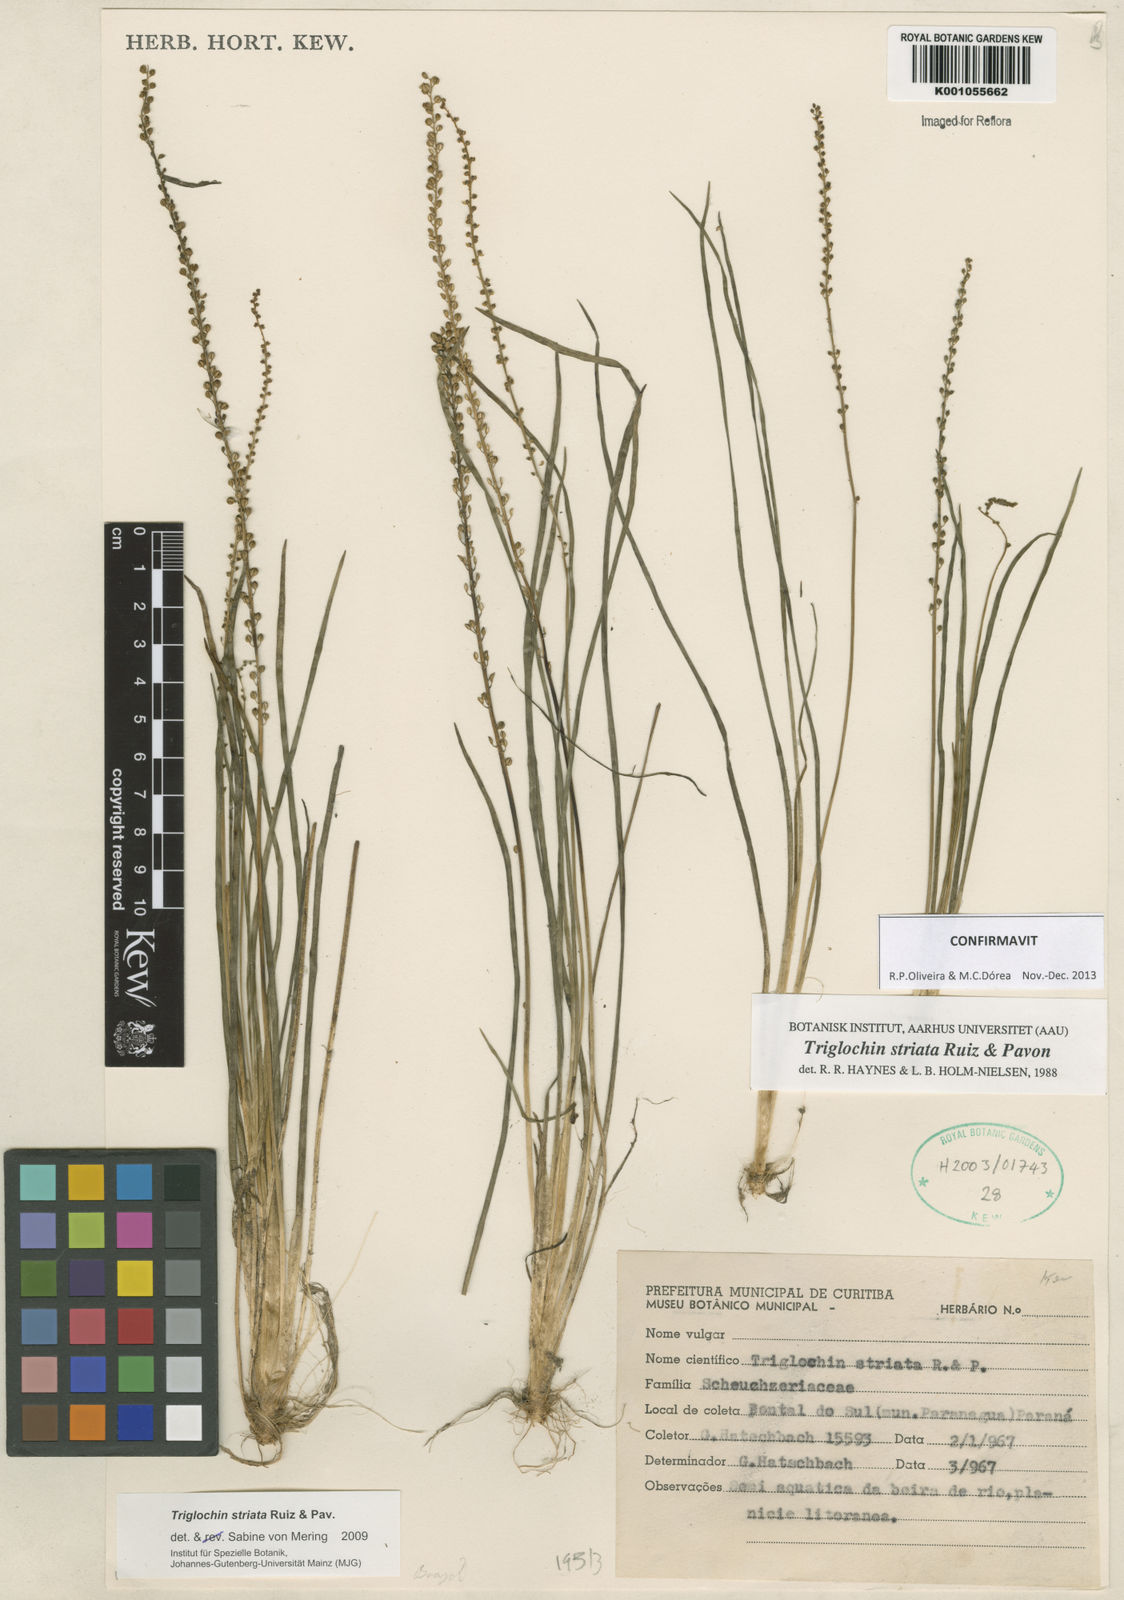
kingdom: Plantae
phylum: Tracheophyta
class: Liliopsida
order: Alismatales
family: Juncaginaceae
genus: Triglochin
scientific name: Triglochin striata
